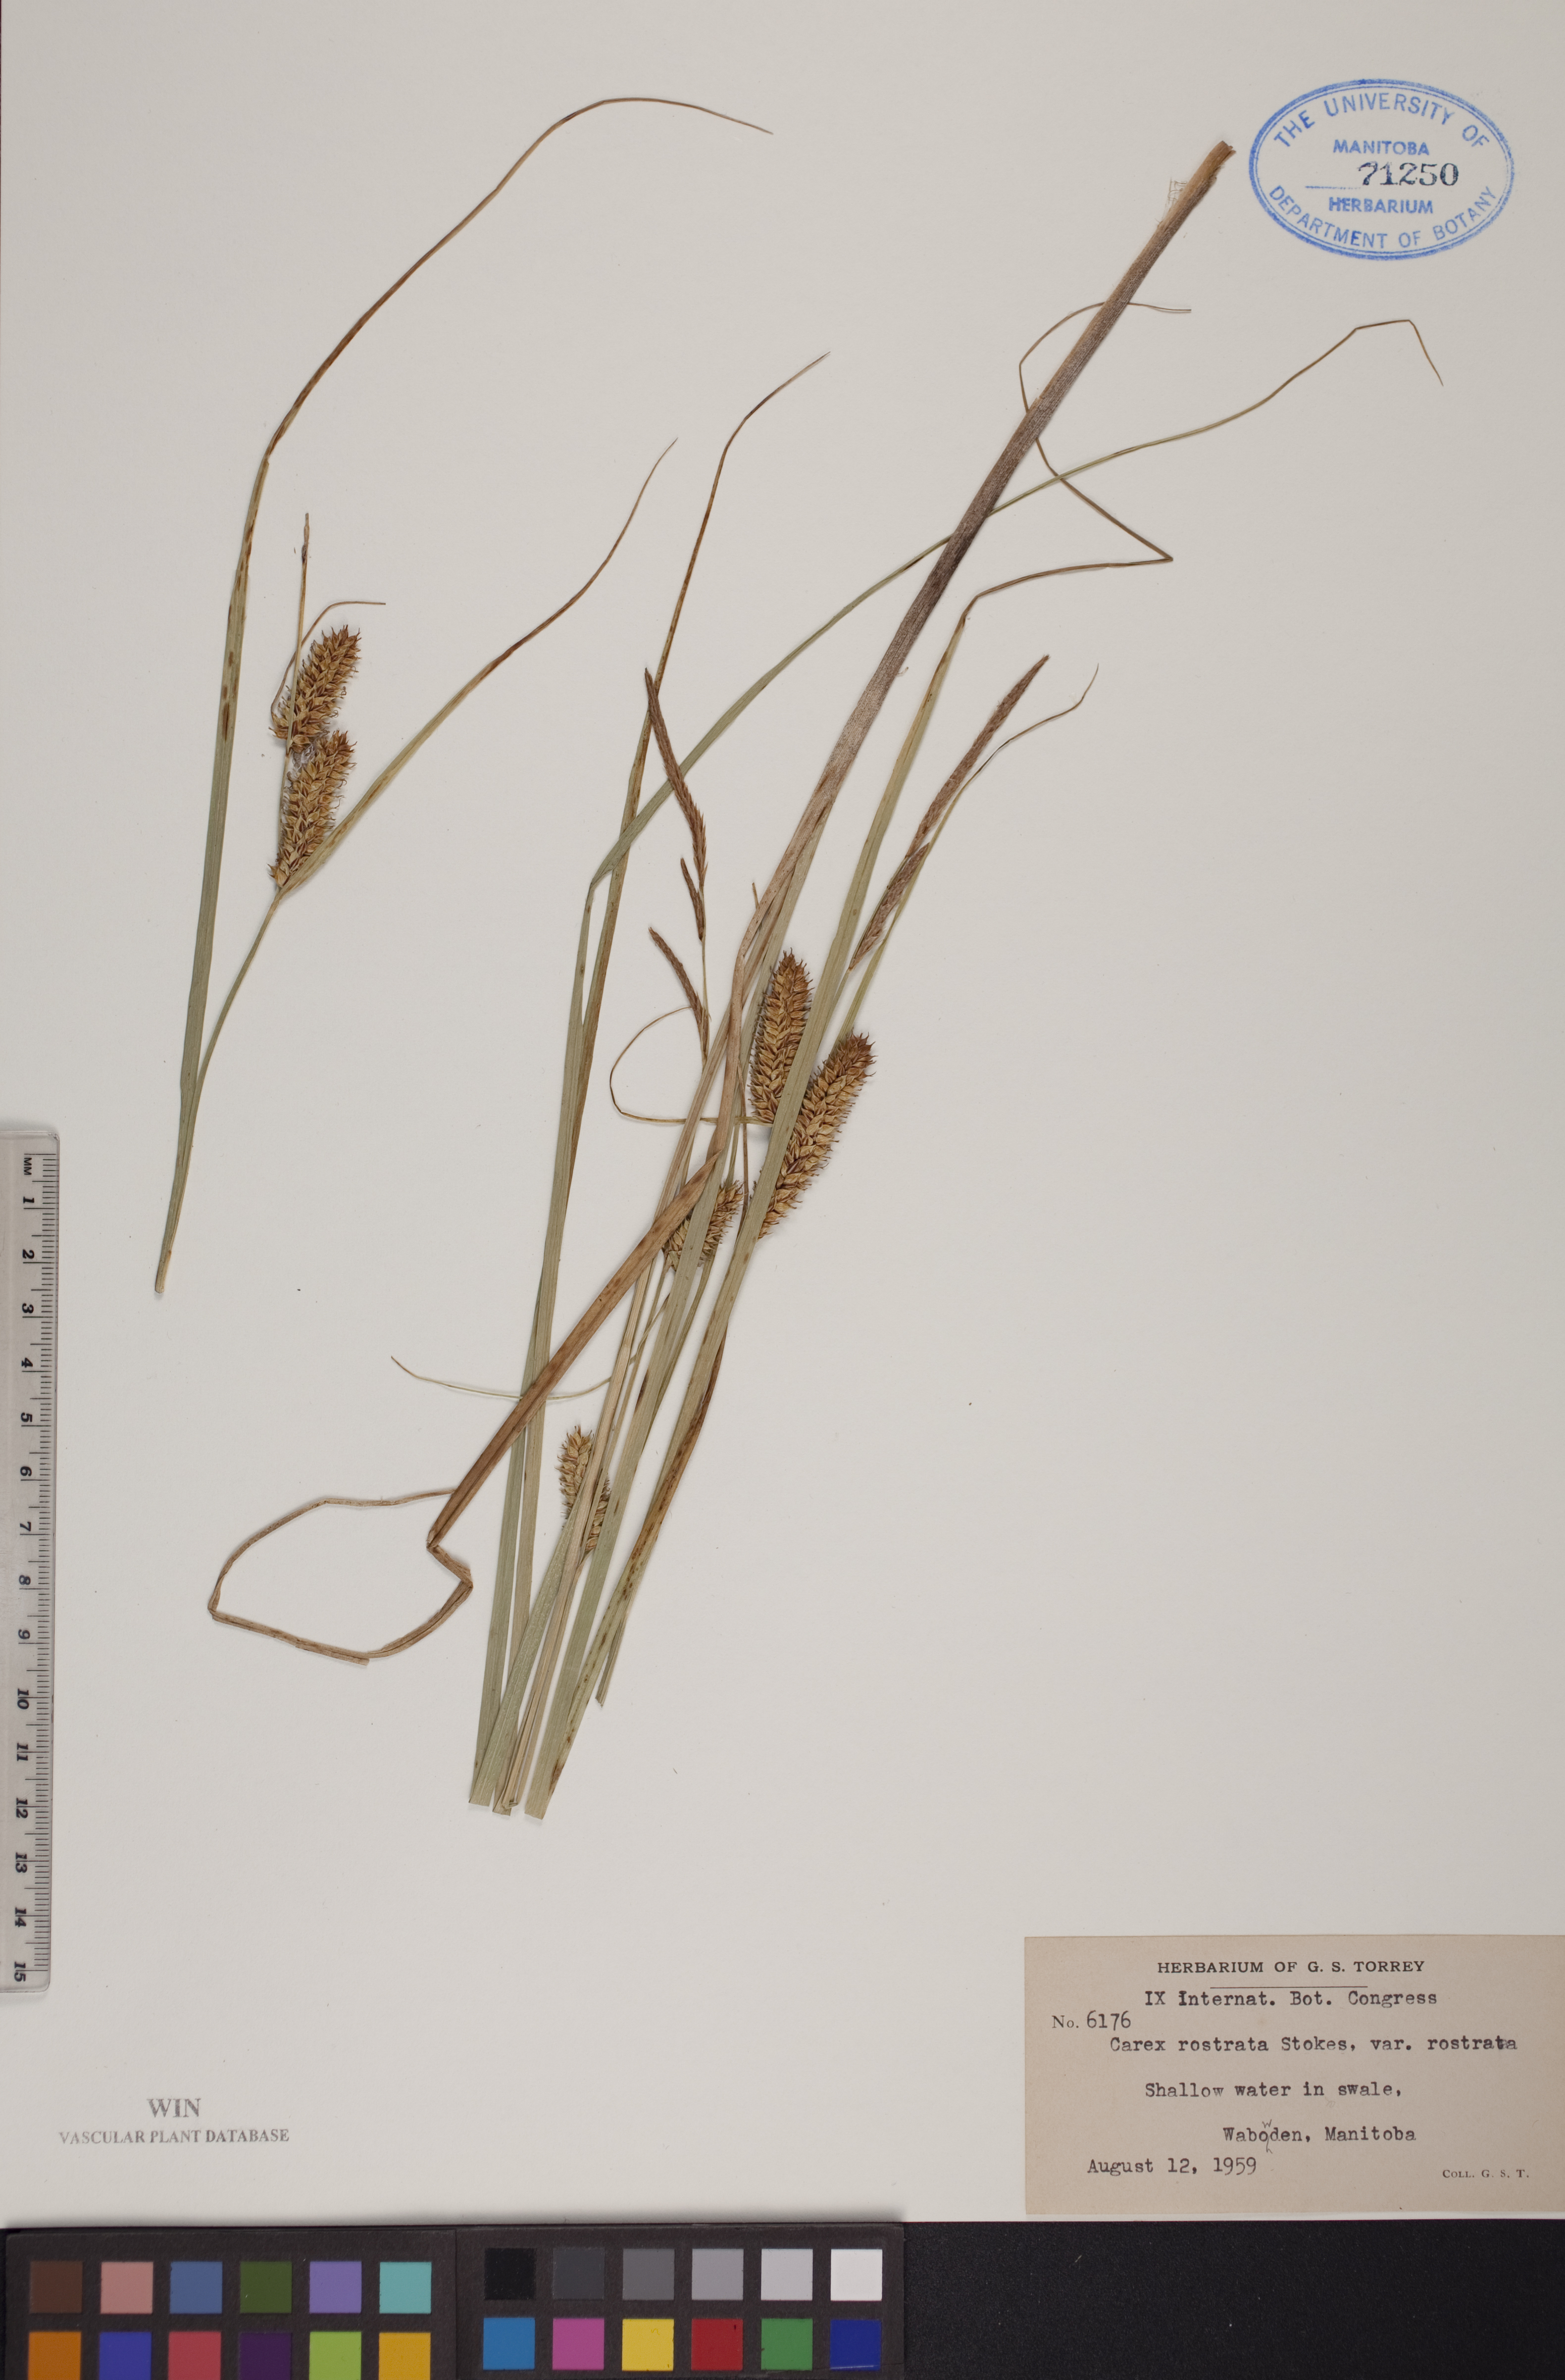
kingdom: Plantae
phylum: Tracheophyta
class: Liliopsida
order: Poales
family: Cyperaceae
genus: Carex
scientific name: Carex rostrata
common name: Bottle sedge
